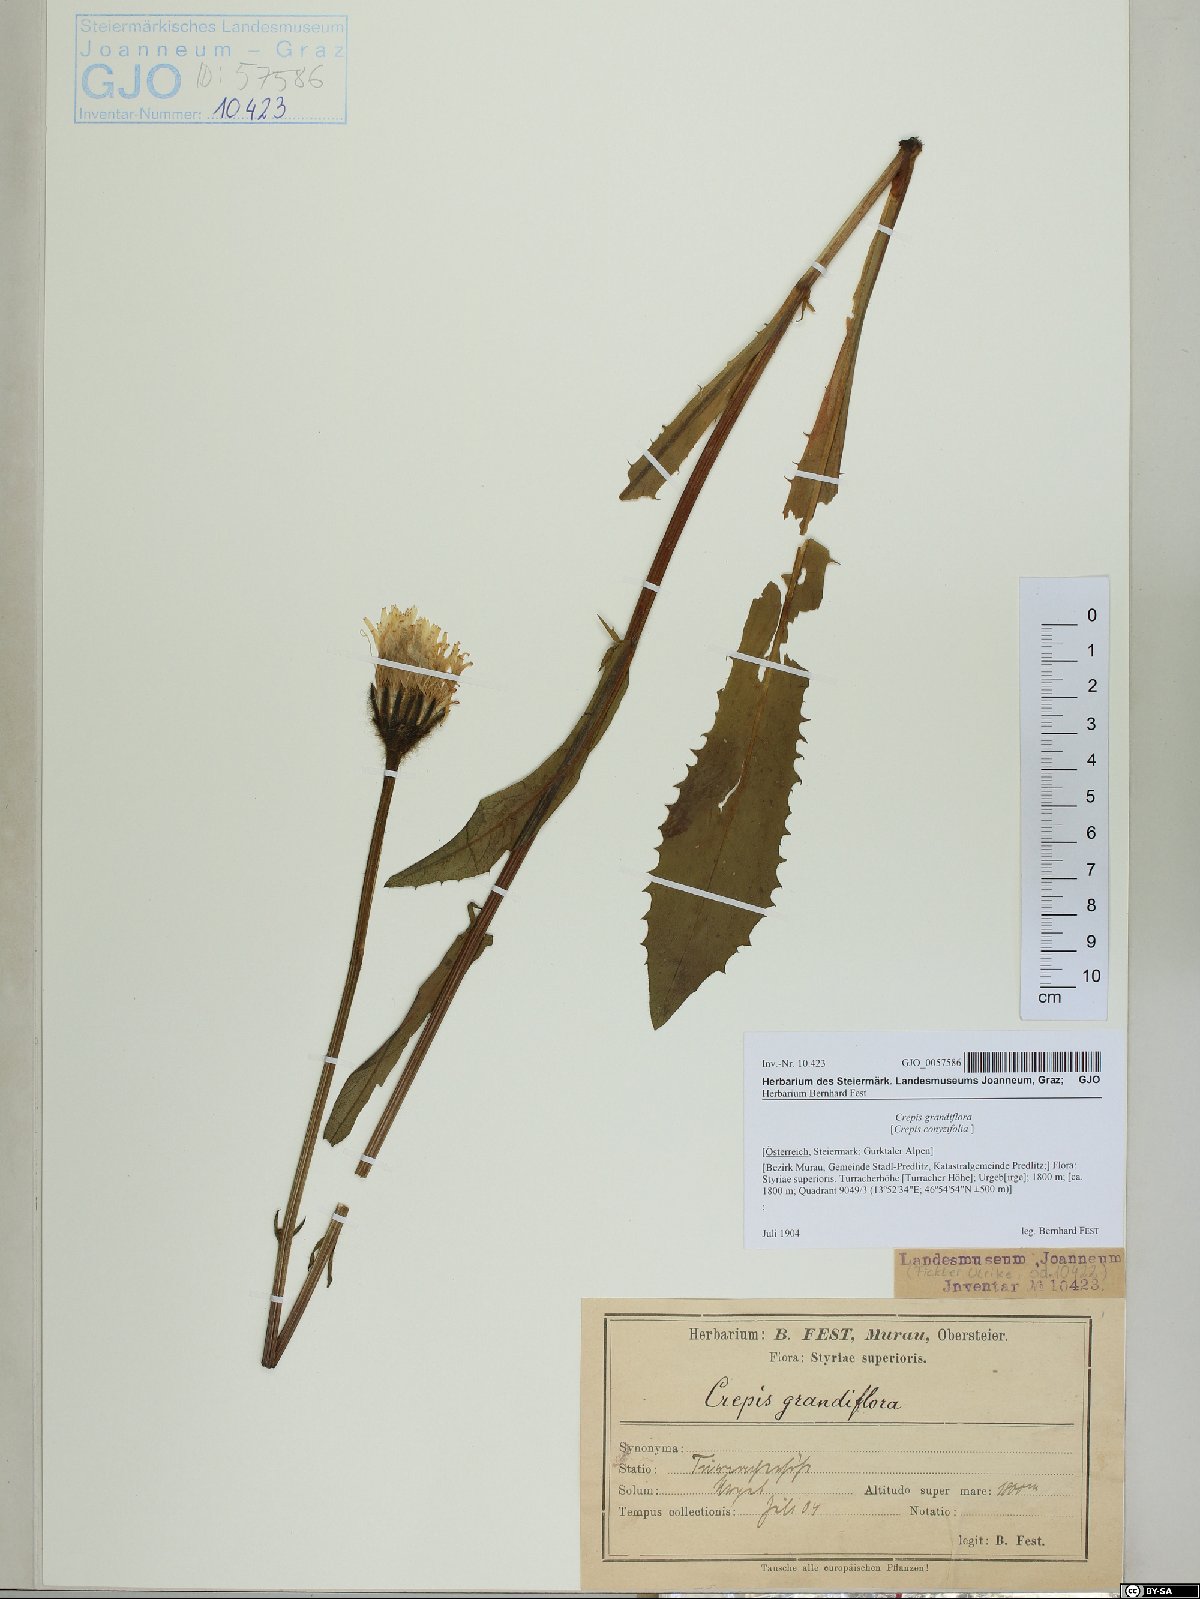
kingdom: Plantae
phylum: Tracheophyta
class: Magnoliopsida
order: Asterales
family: Asteraceae
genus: Crepis
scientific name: Crepis pyrenaica
